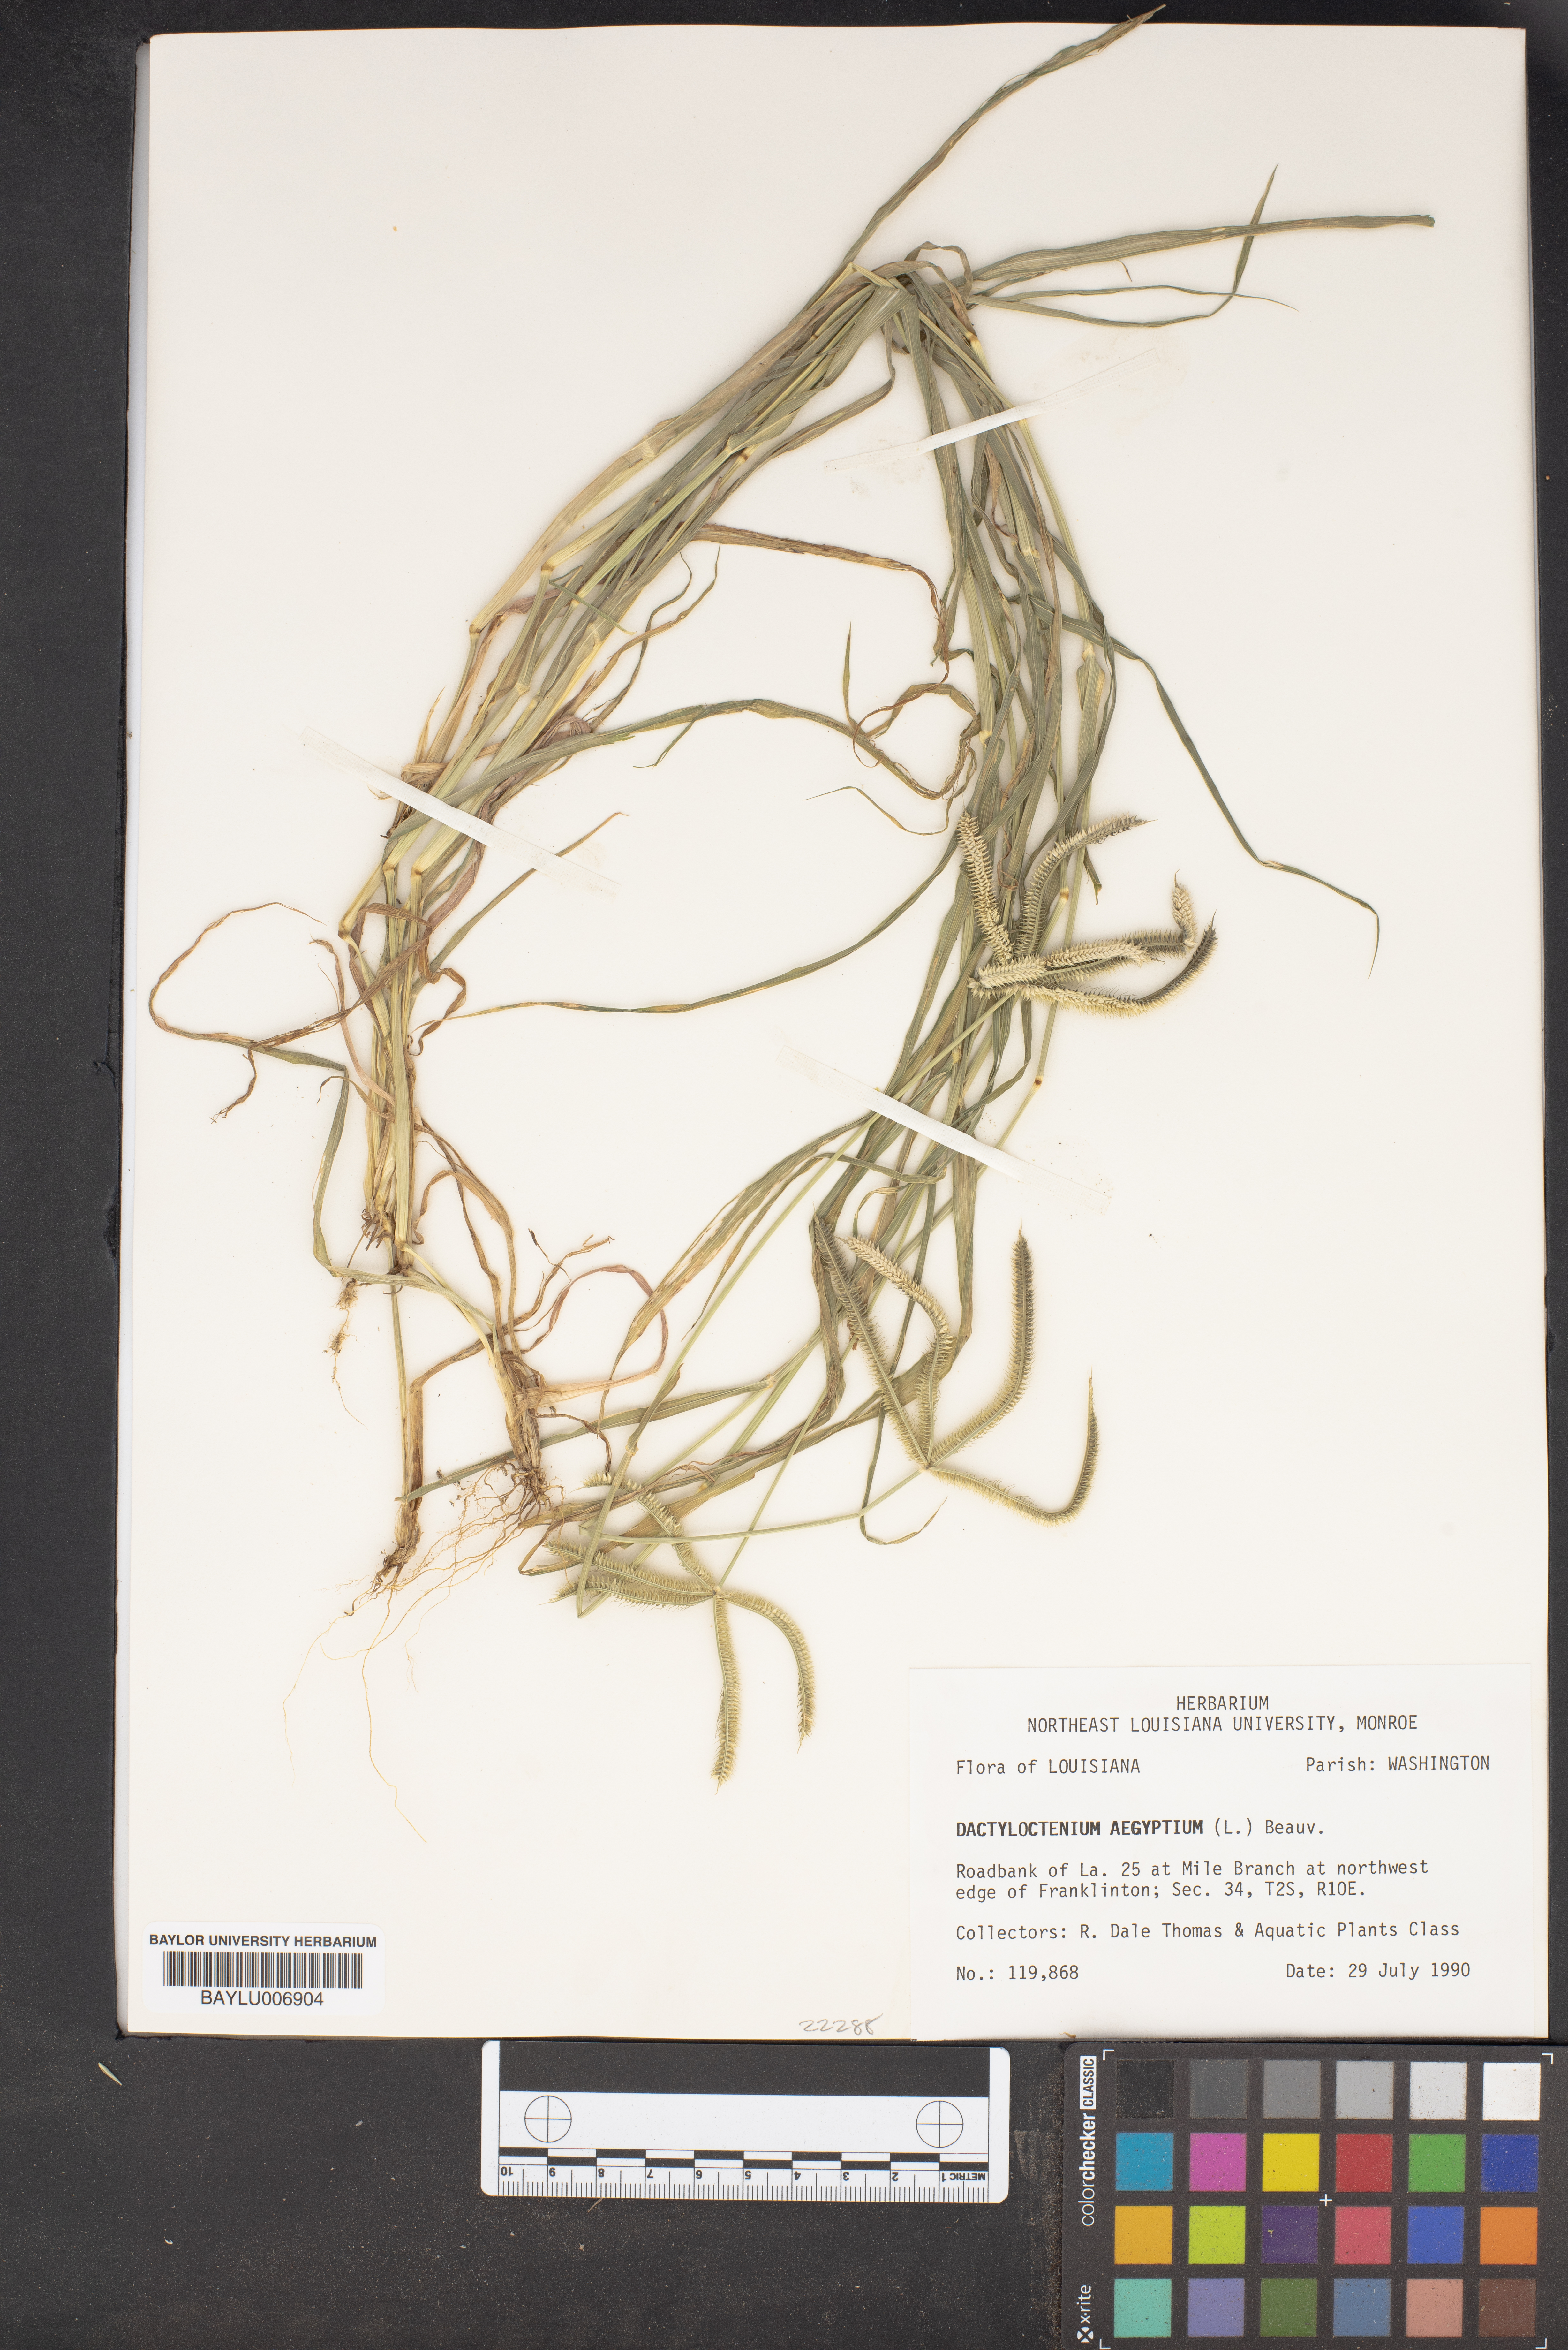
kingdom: Plantae
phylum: Tracheophyta
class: Liliopsida
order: Poales
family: Poaceae
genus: Dactyloctenium
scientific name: Dactyloctenium aegyptium
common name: Egyptian grass
